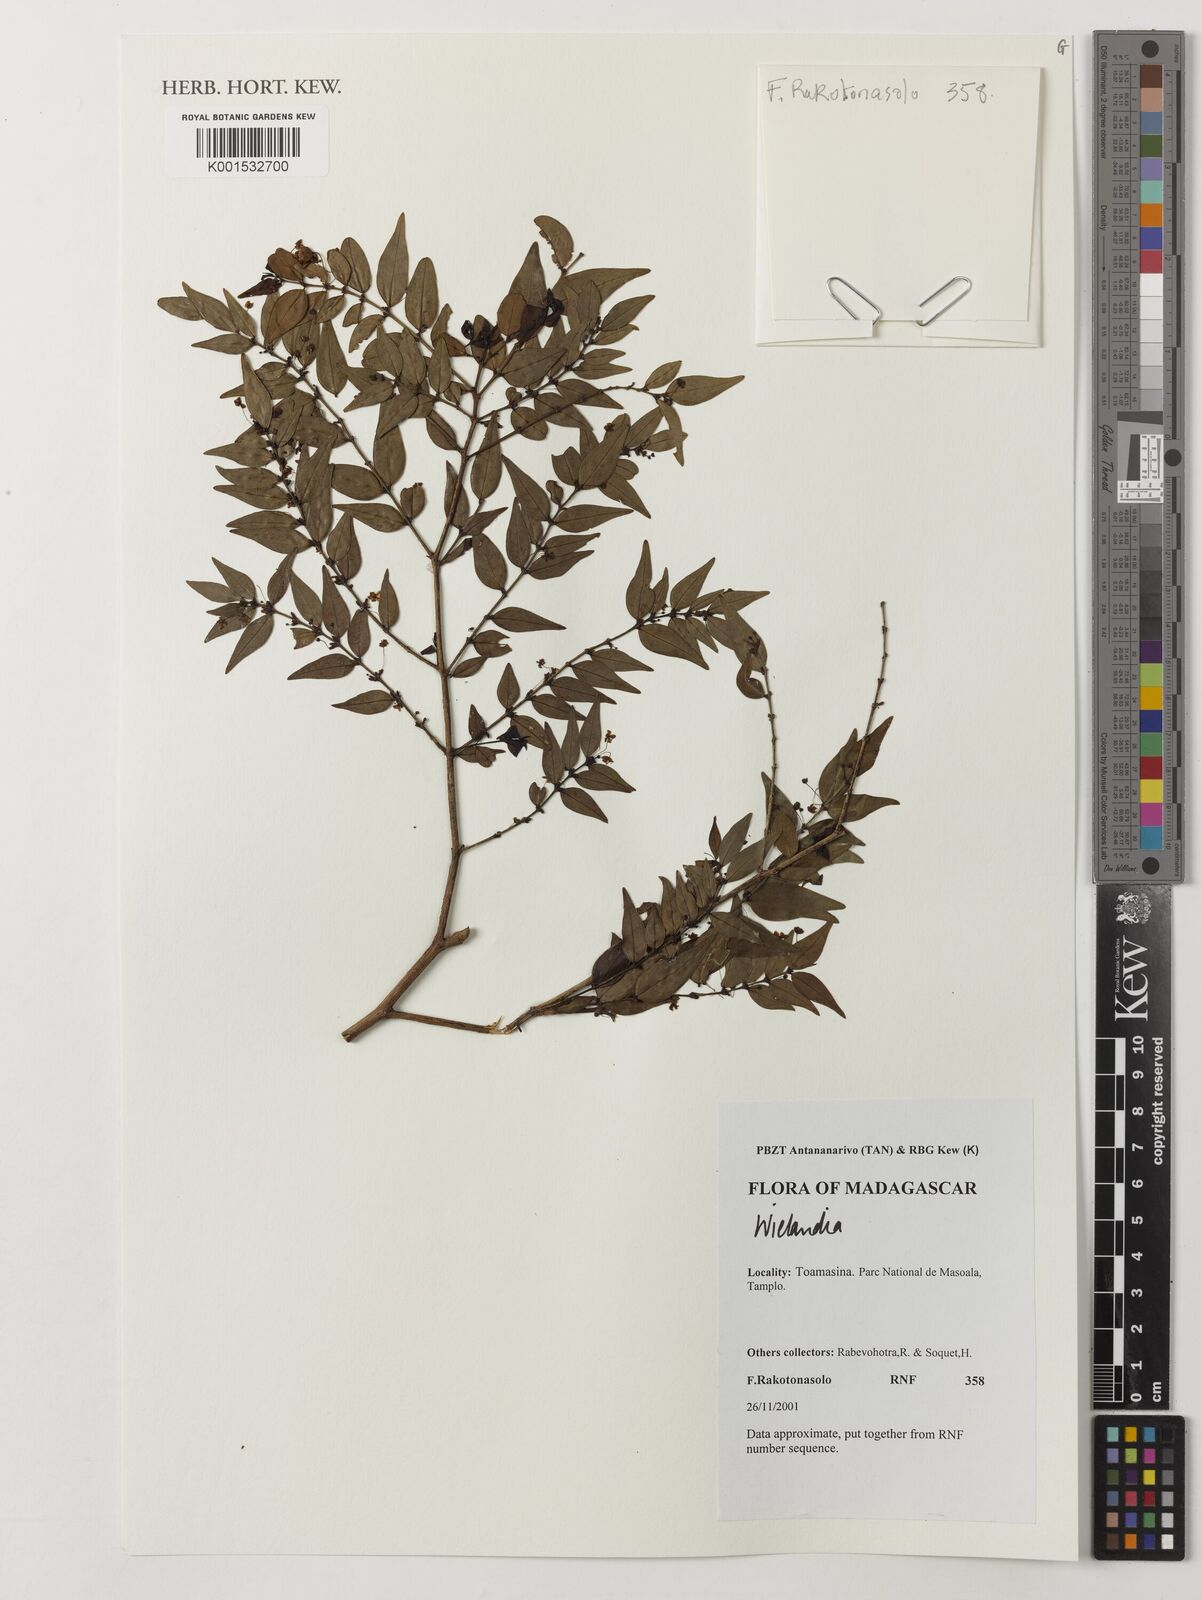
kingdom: Plantae
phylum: Tracheophyta
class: Magnoliopsida
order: Malpighiales
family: Phyllanthaceae
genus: Wielandia
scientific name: Wielandia
